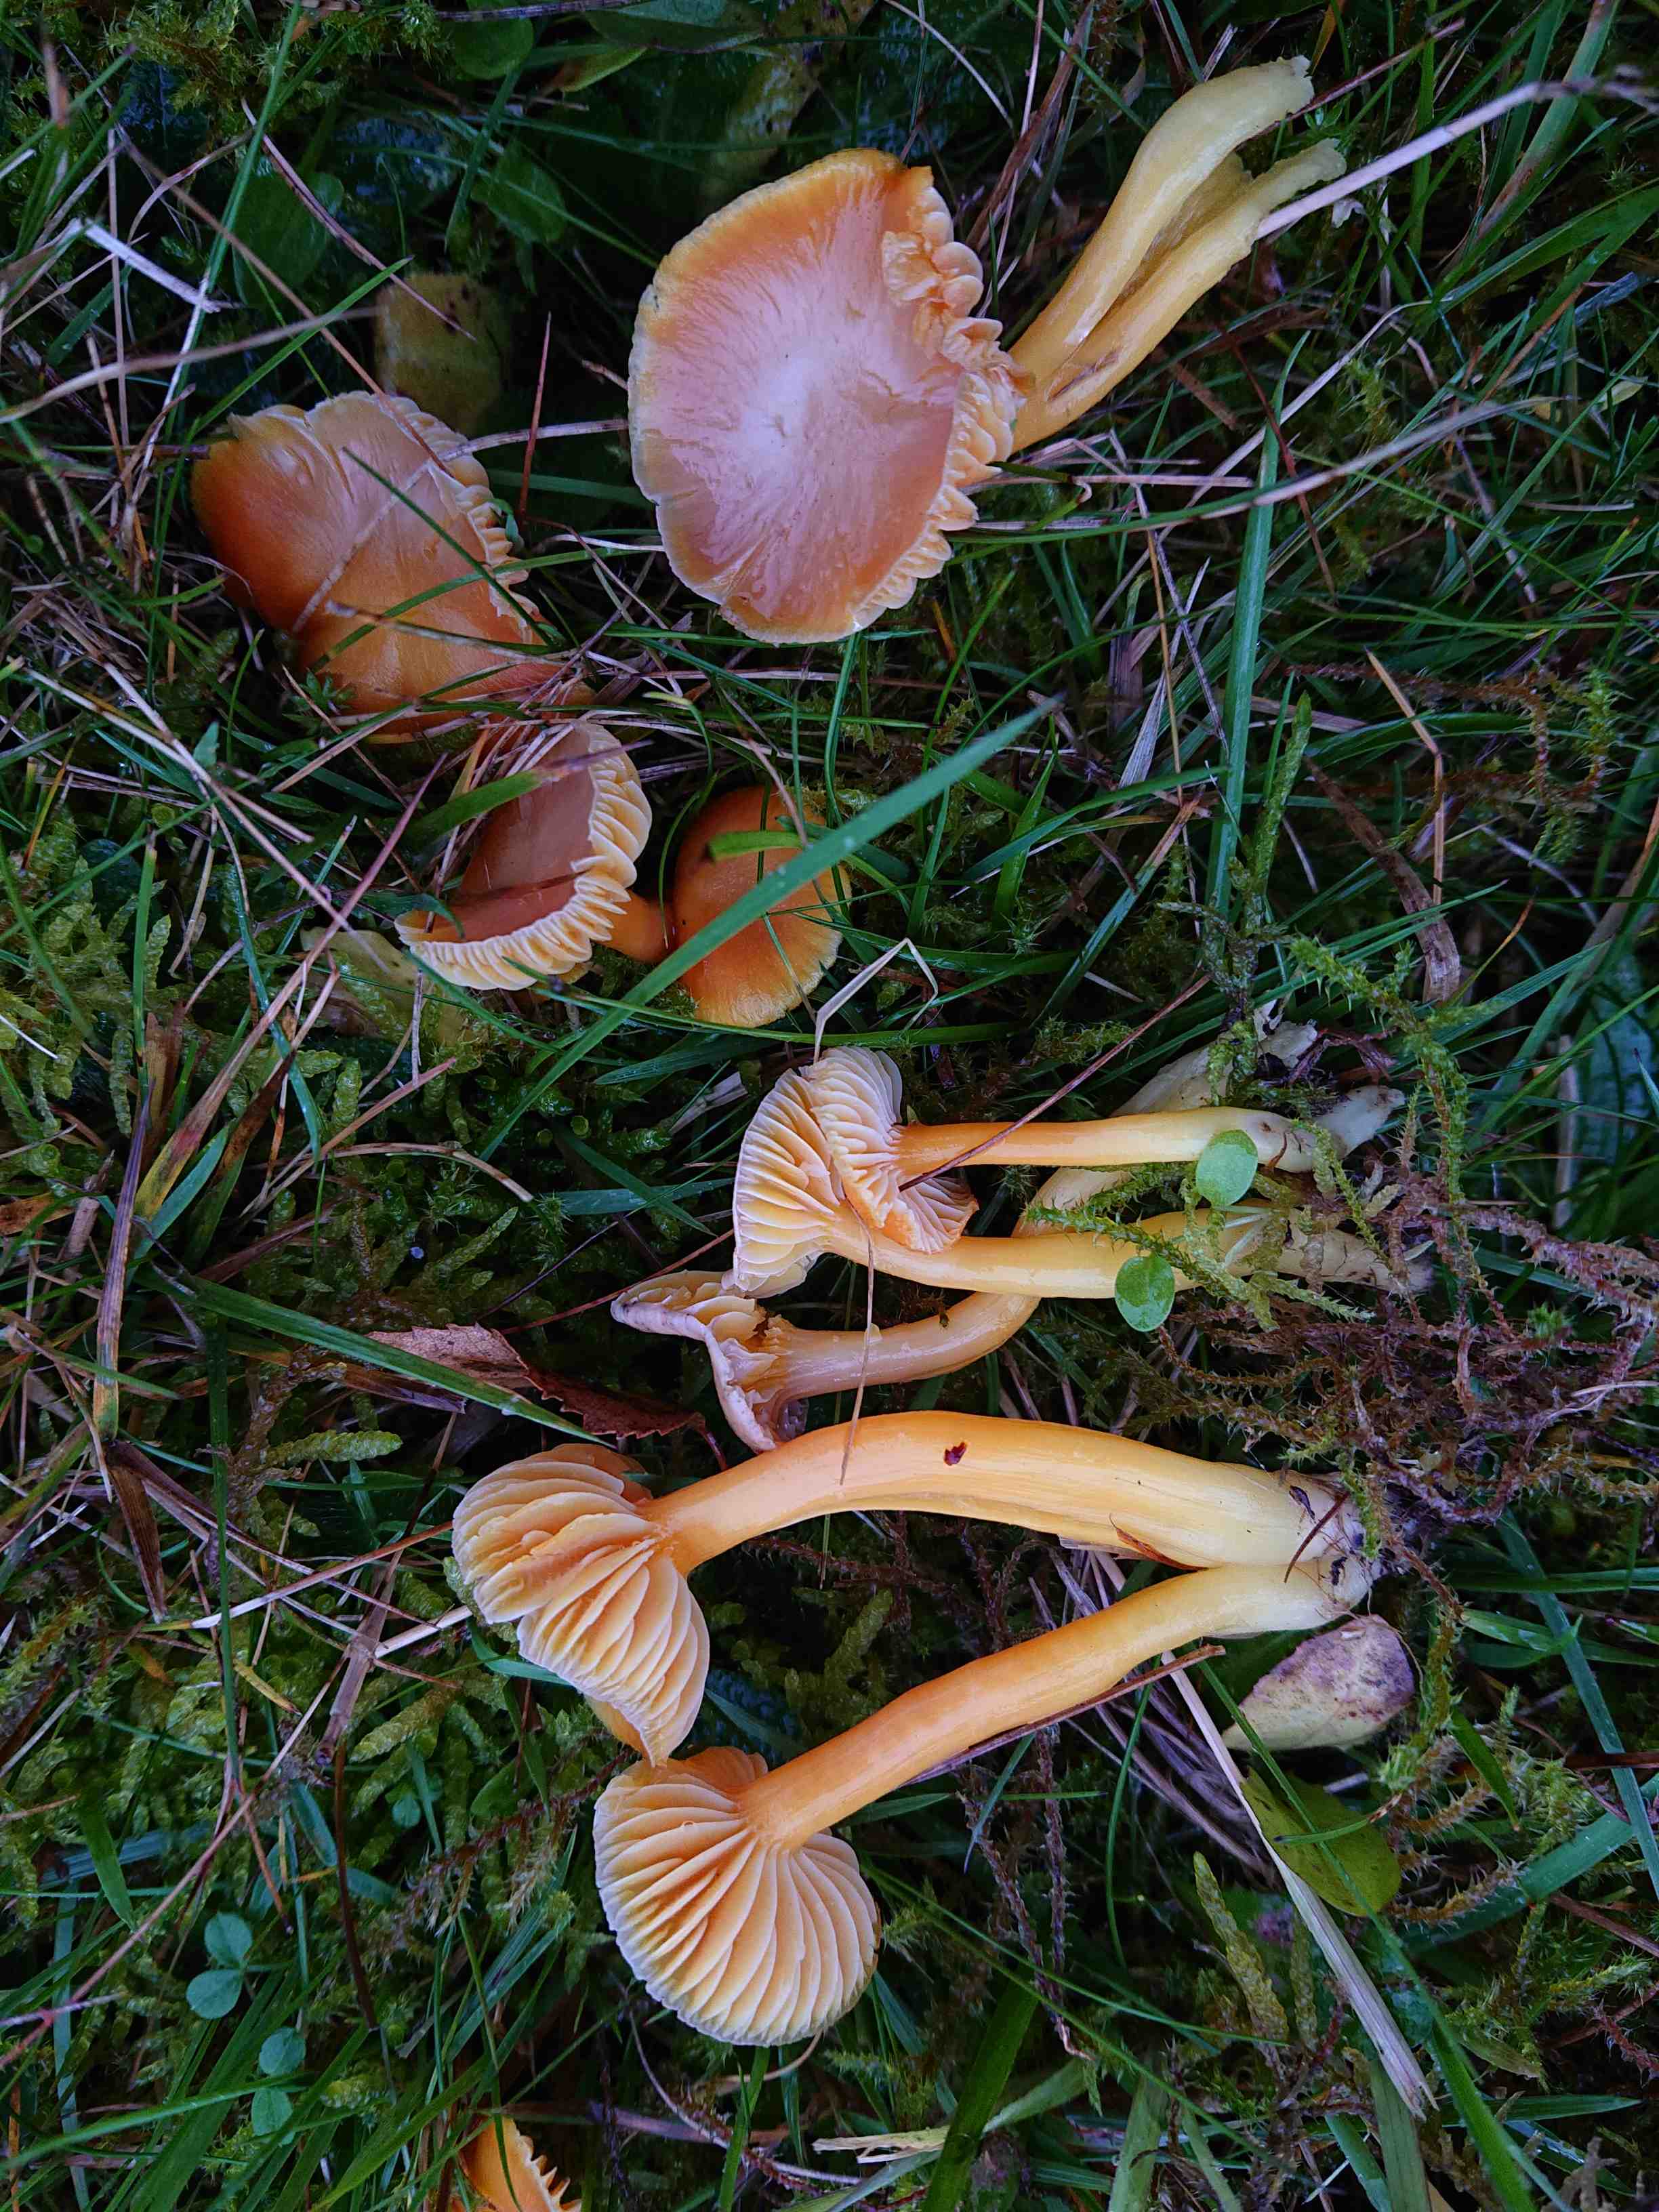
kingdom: Fungi
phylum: Basidiomycota
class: Agaricomycetes
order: Agaricales
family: Hygrophoraceae
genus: Hygrocybe
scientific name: Hygrocybe reidii
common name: honning-vokshat
